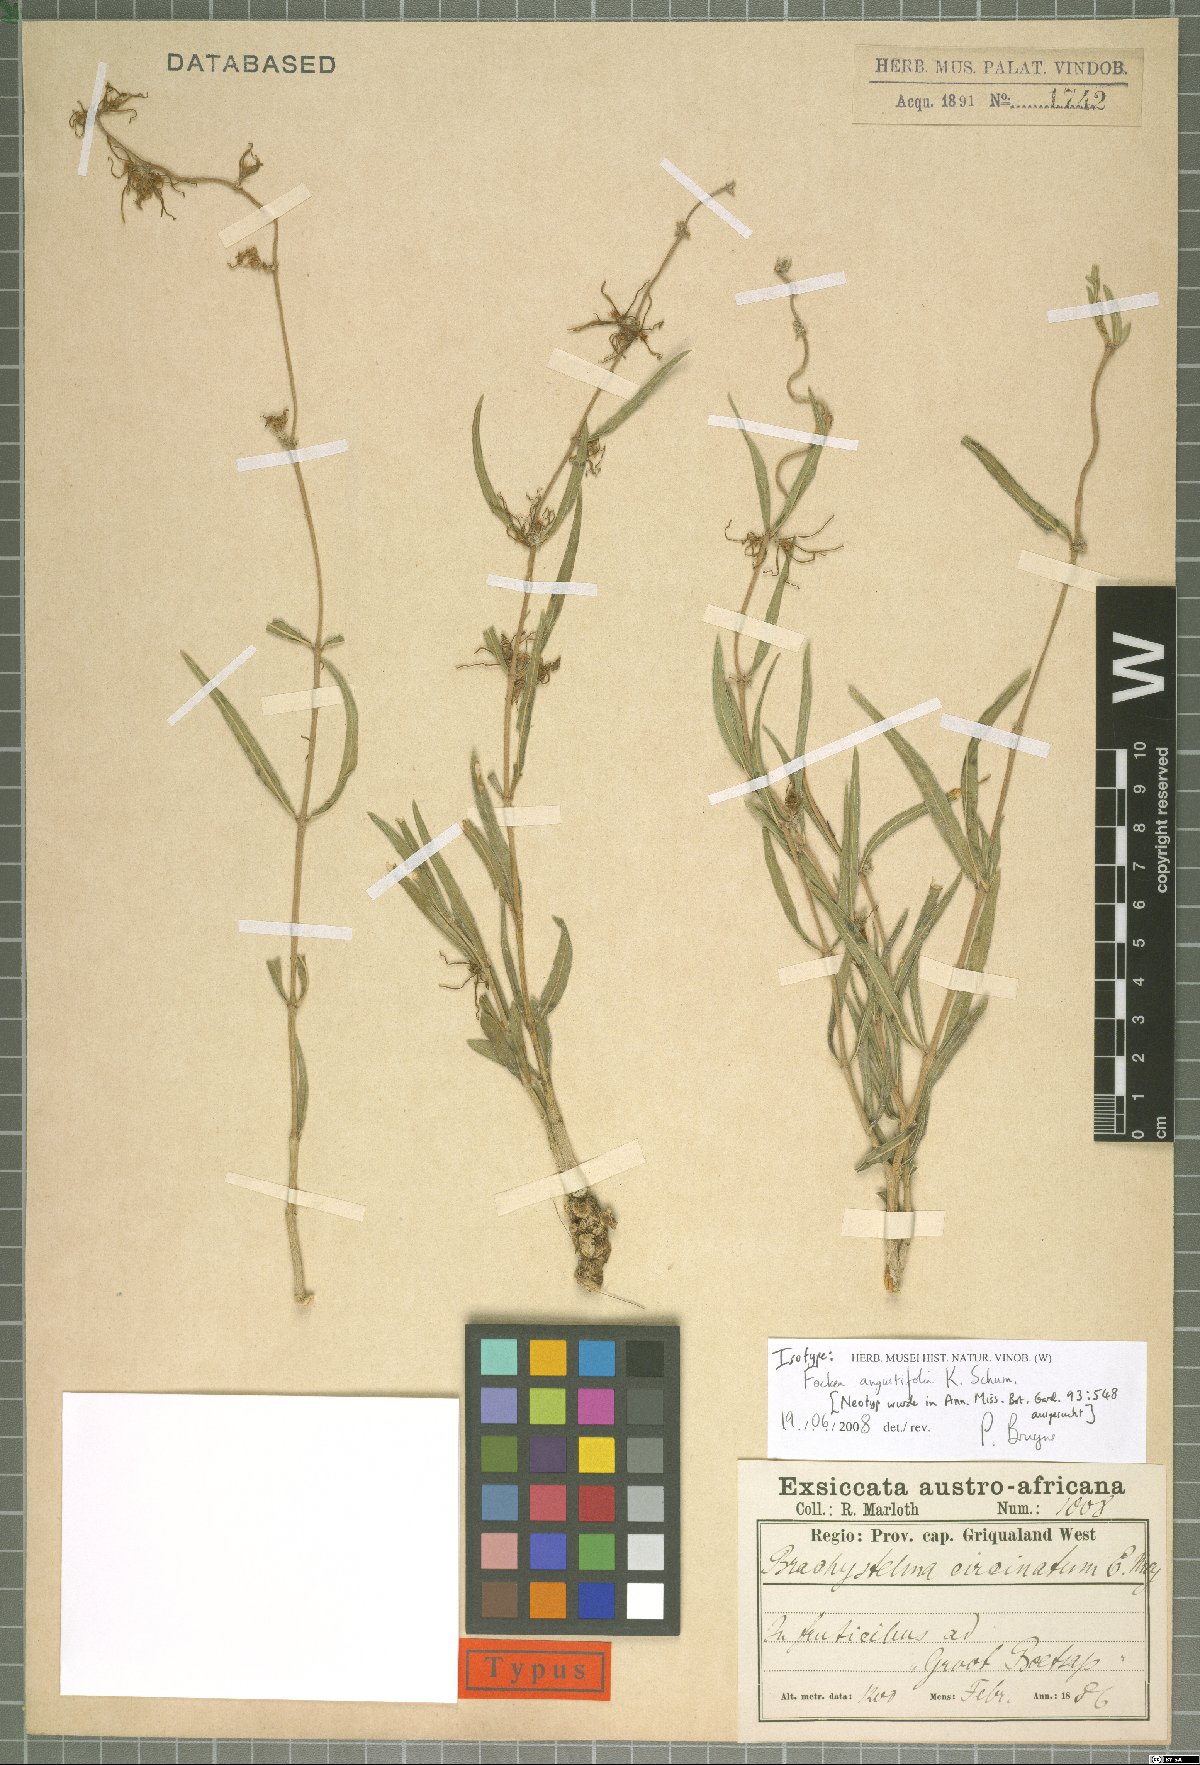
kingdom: Plantae
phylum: Tracheophyta
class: Magnoliopsida
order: Gentianales
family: Apocynaceae
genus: Fockea
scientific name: Fockea angustifolia
